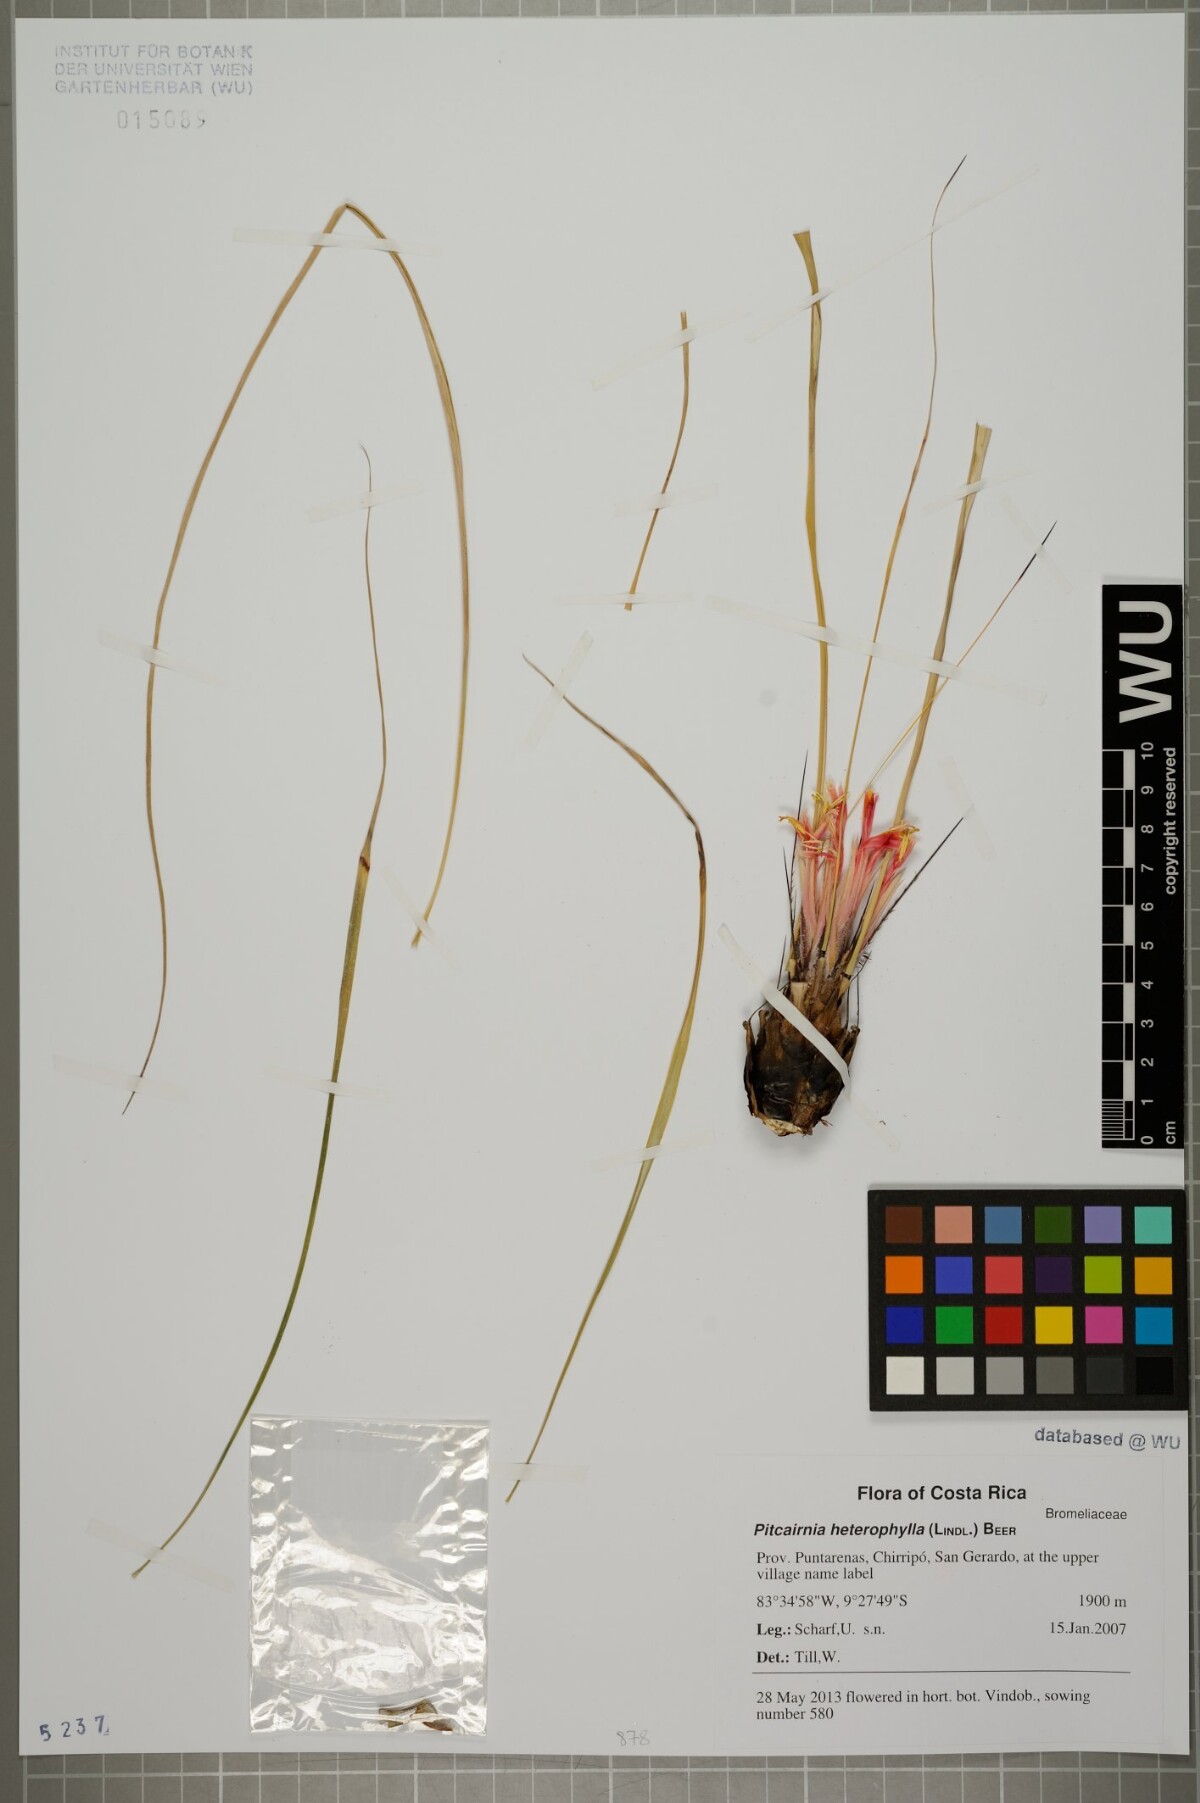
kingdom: Plantae
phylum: Tracheophyta
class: Liliopsida
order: Poales
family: Bromeliaceae
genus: Pitcairnia
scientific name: Pitcairnia heterophylla
